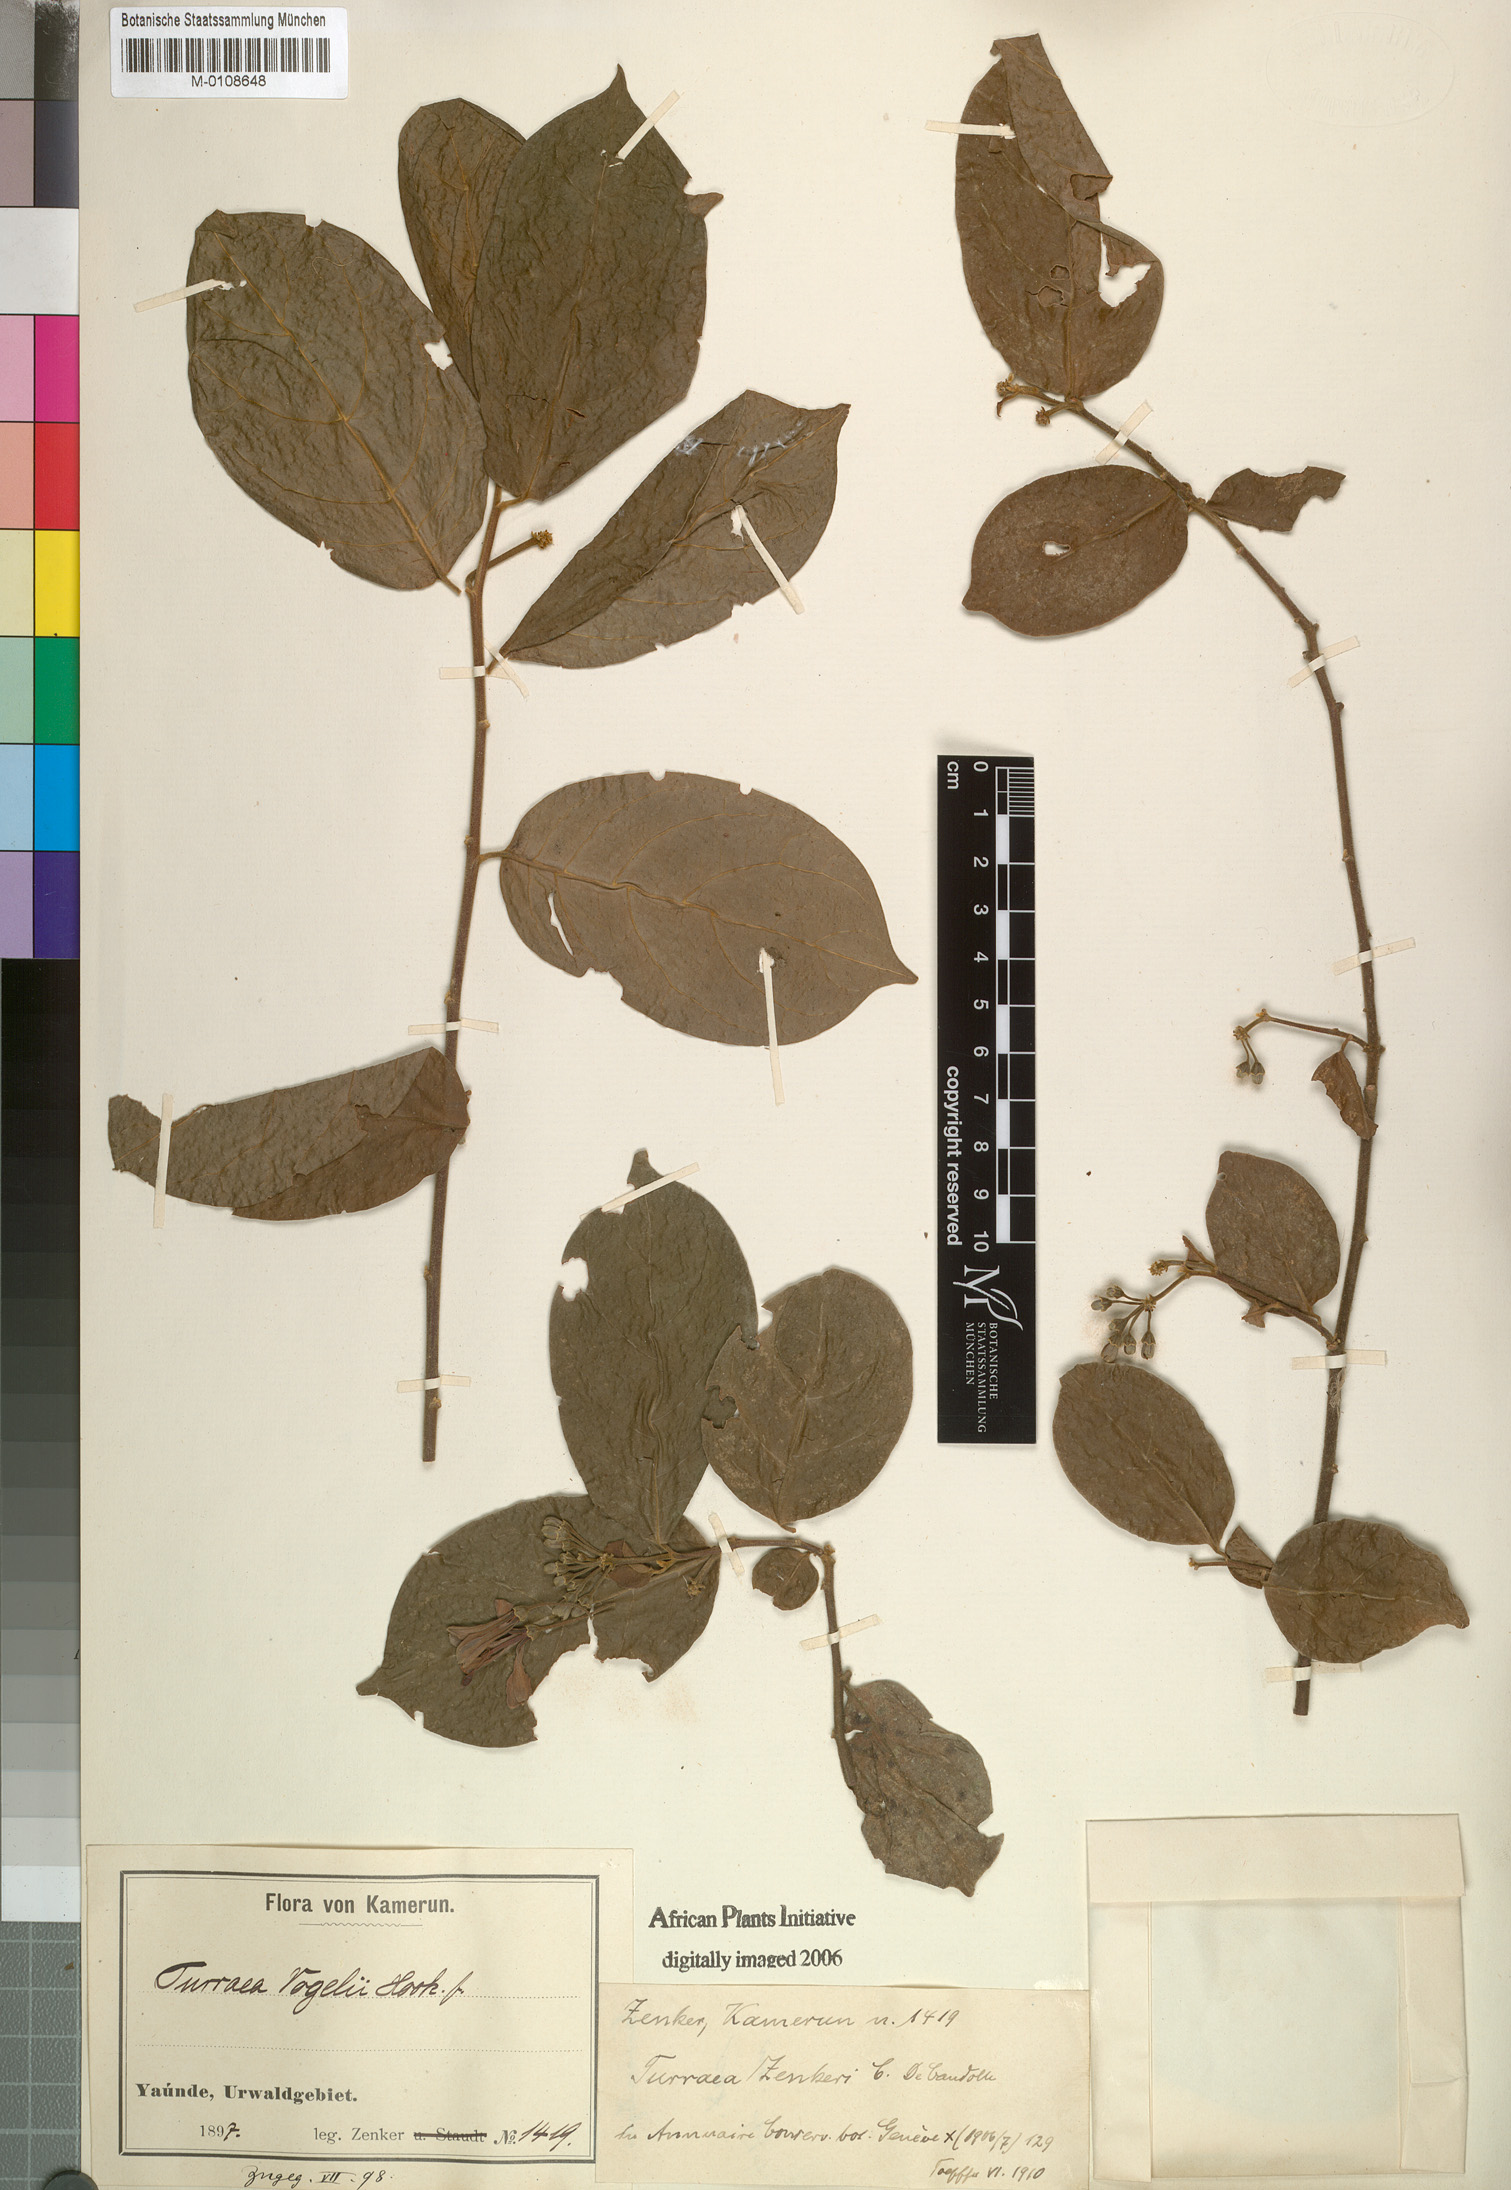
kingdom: Plantae
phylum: Tracheophyta
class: Magnoliopsida
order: Sapindales
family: Meliaceae
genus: Turraea
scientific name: Turraea vogelii
